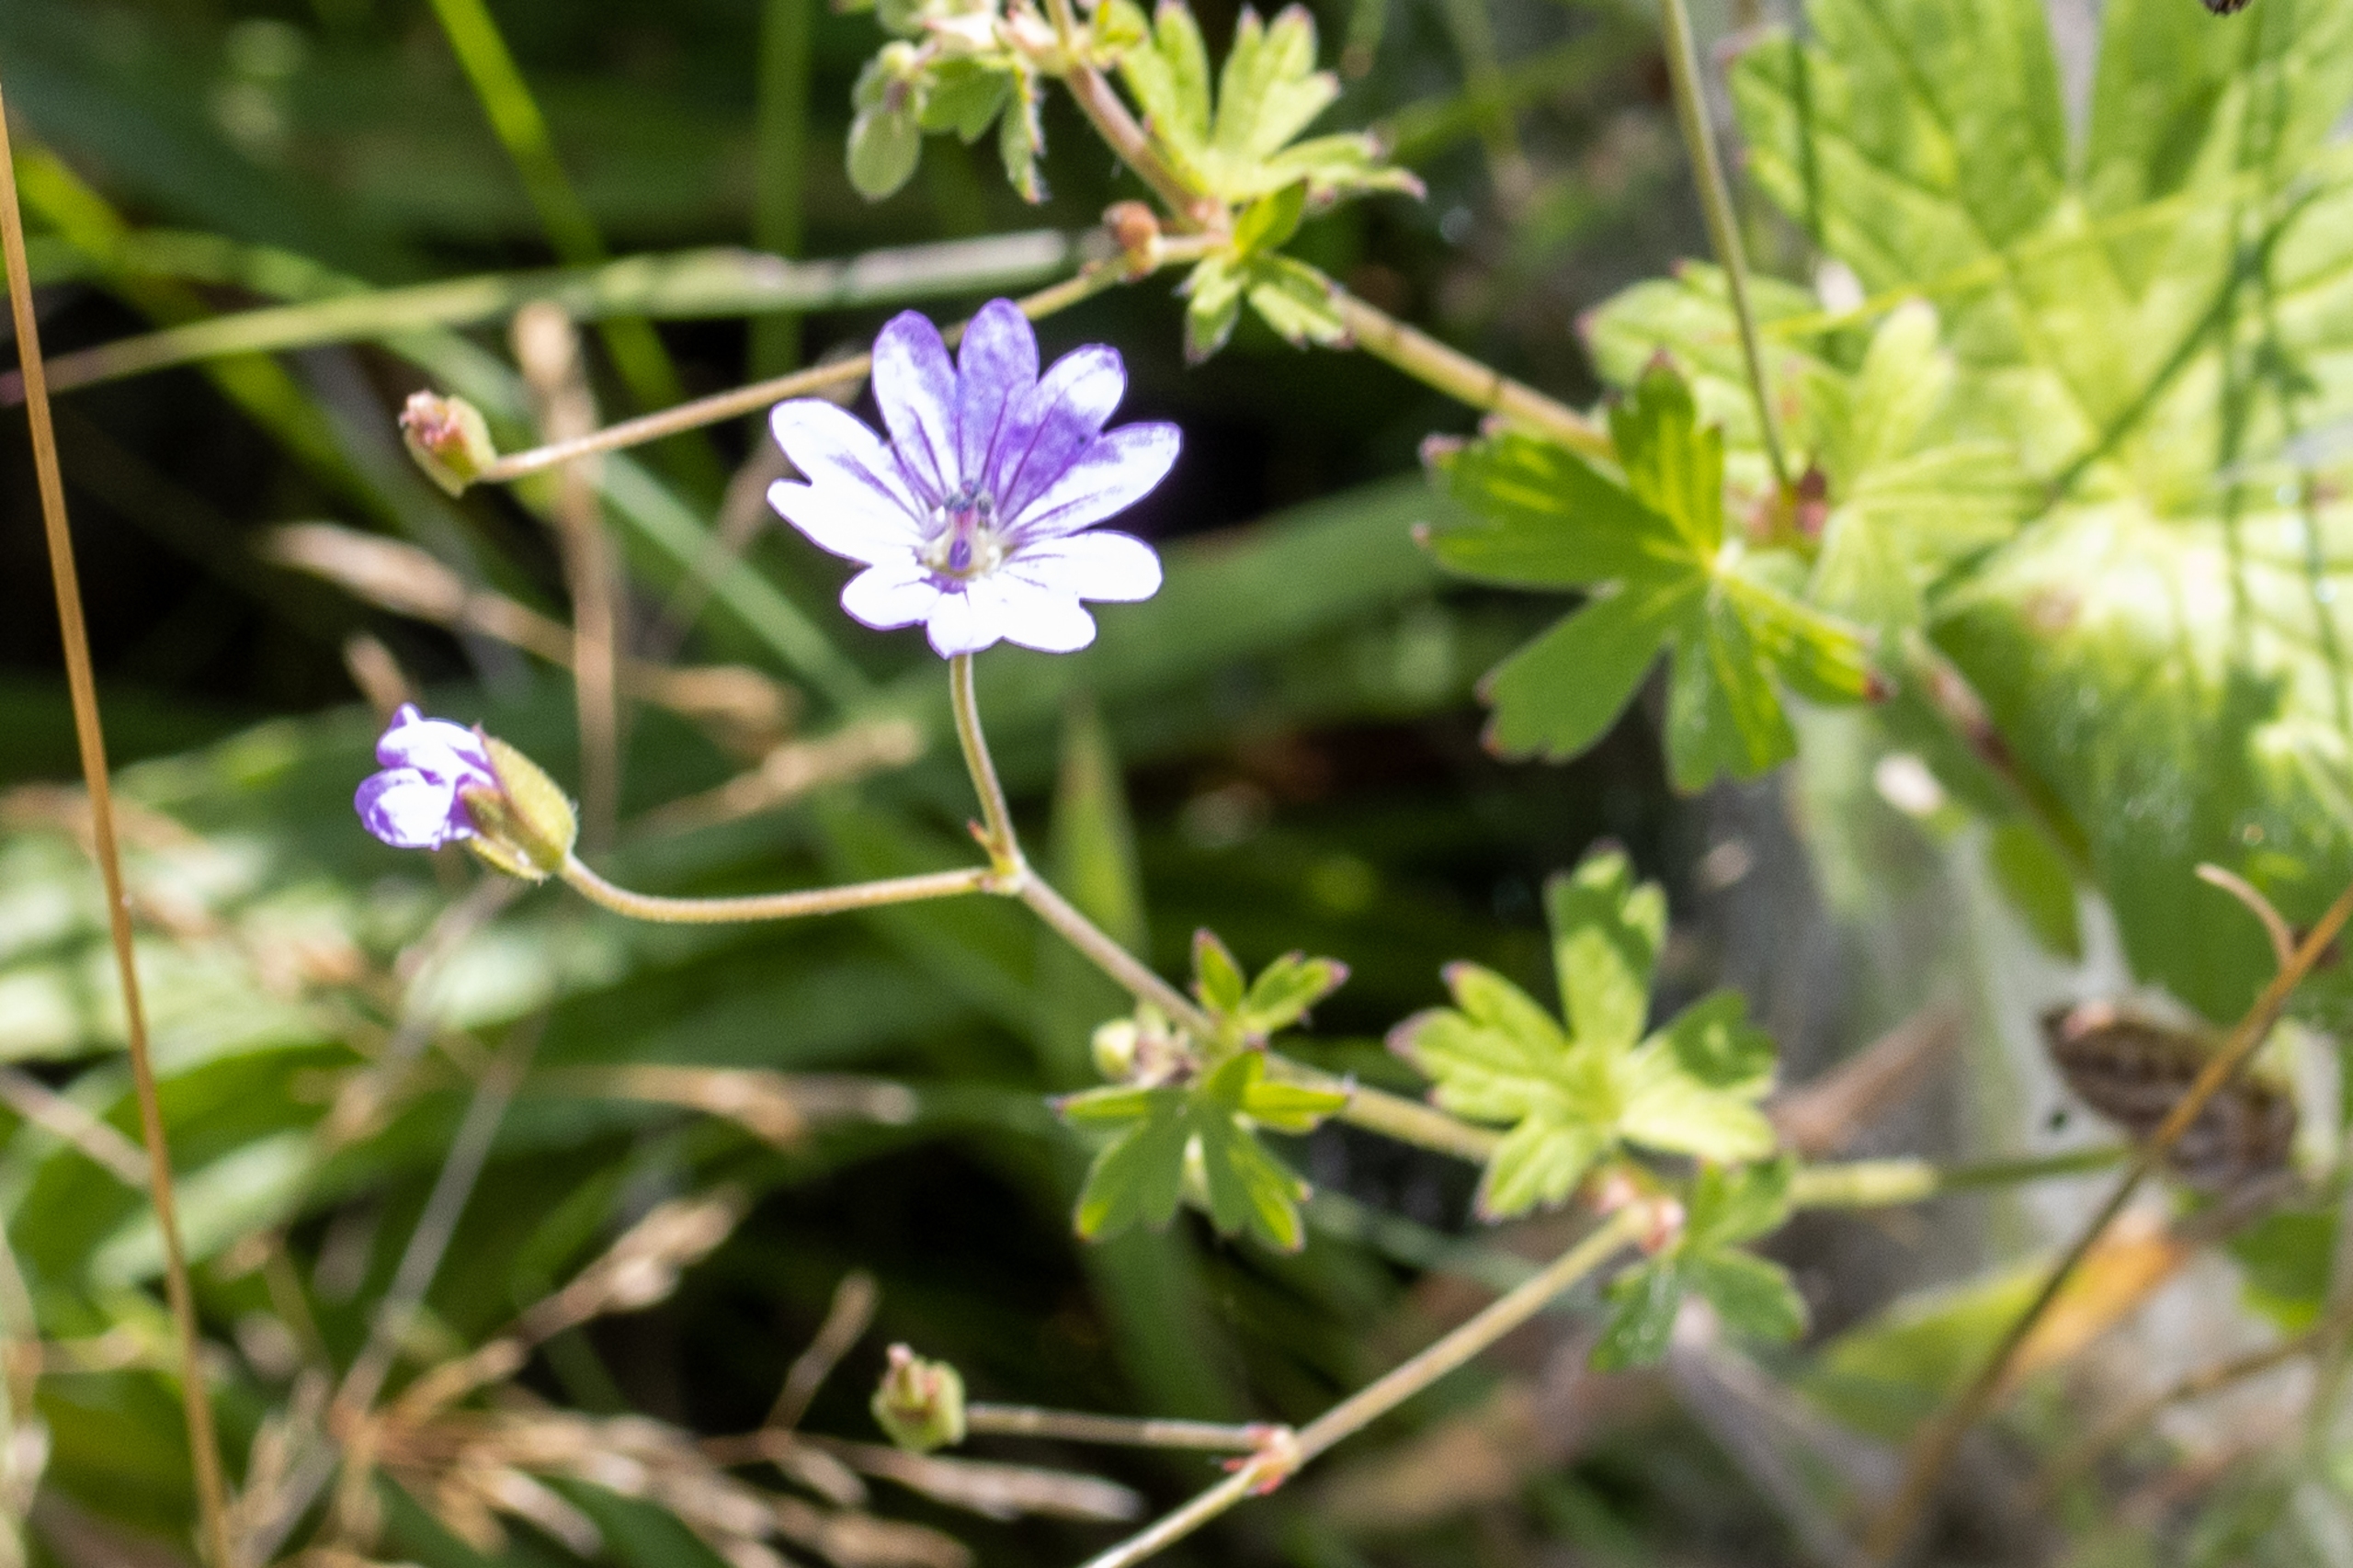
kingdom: Plantae
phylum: Tracheophyta
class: Magnoliopsida
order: Geraniales
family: Geraniaceae
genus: Geranium
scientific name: Geranium pusillum
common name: Liden storkenæb
